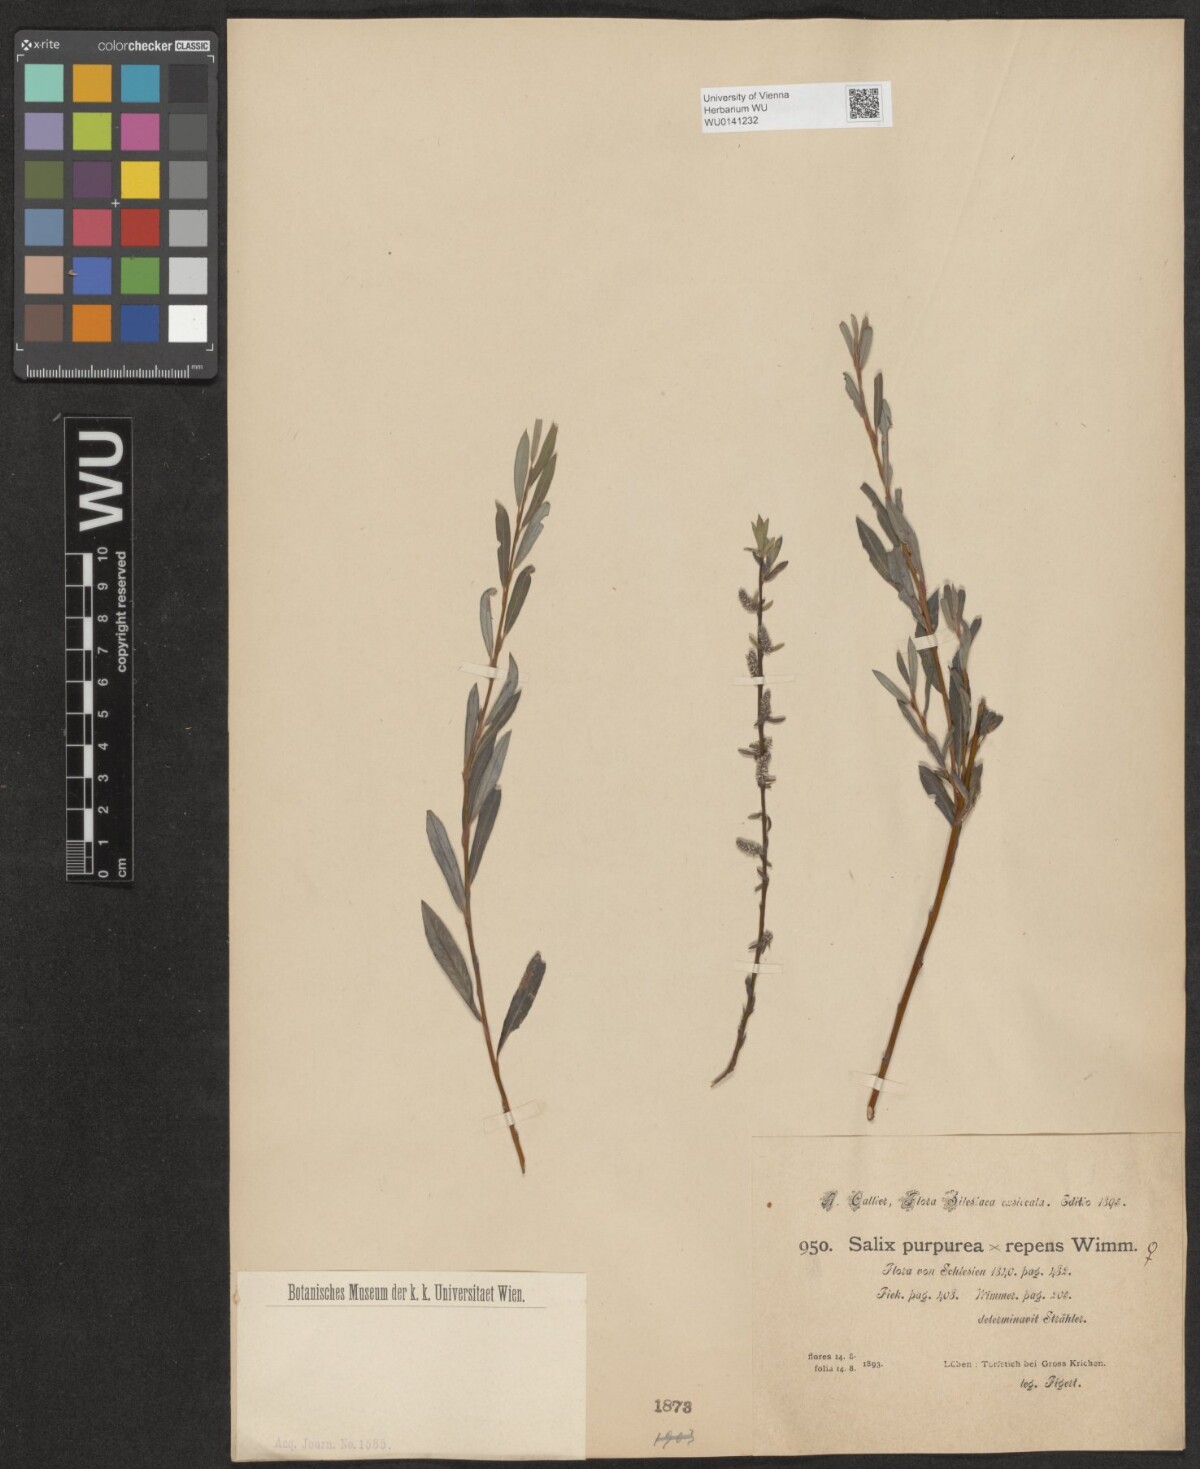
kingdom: Plantae
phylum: Tracheophyta
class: Magnoliopsida
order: Malpighiales
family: Salicaceae
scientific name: Salicaceae
